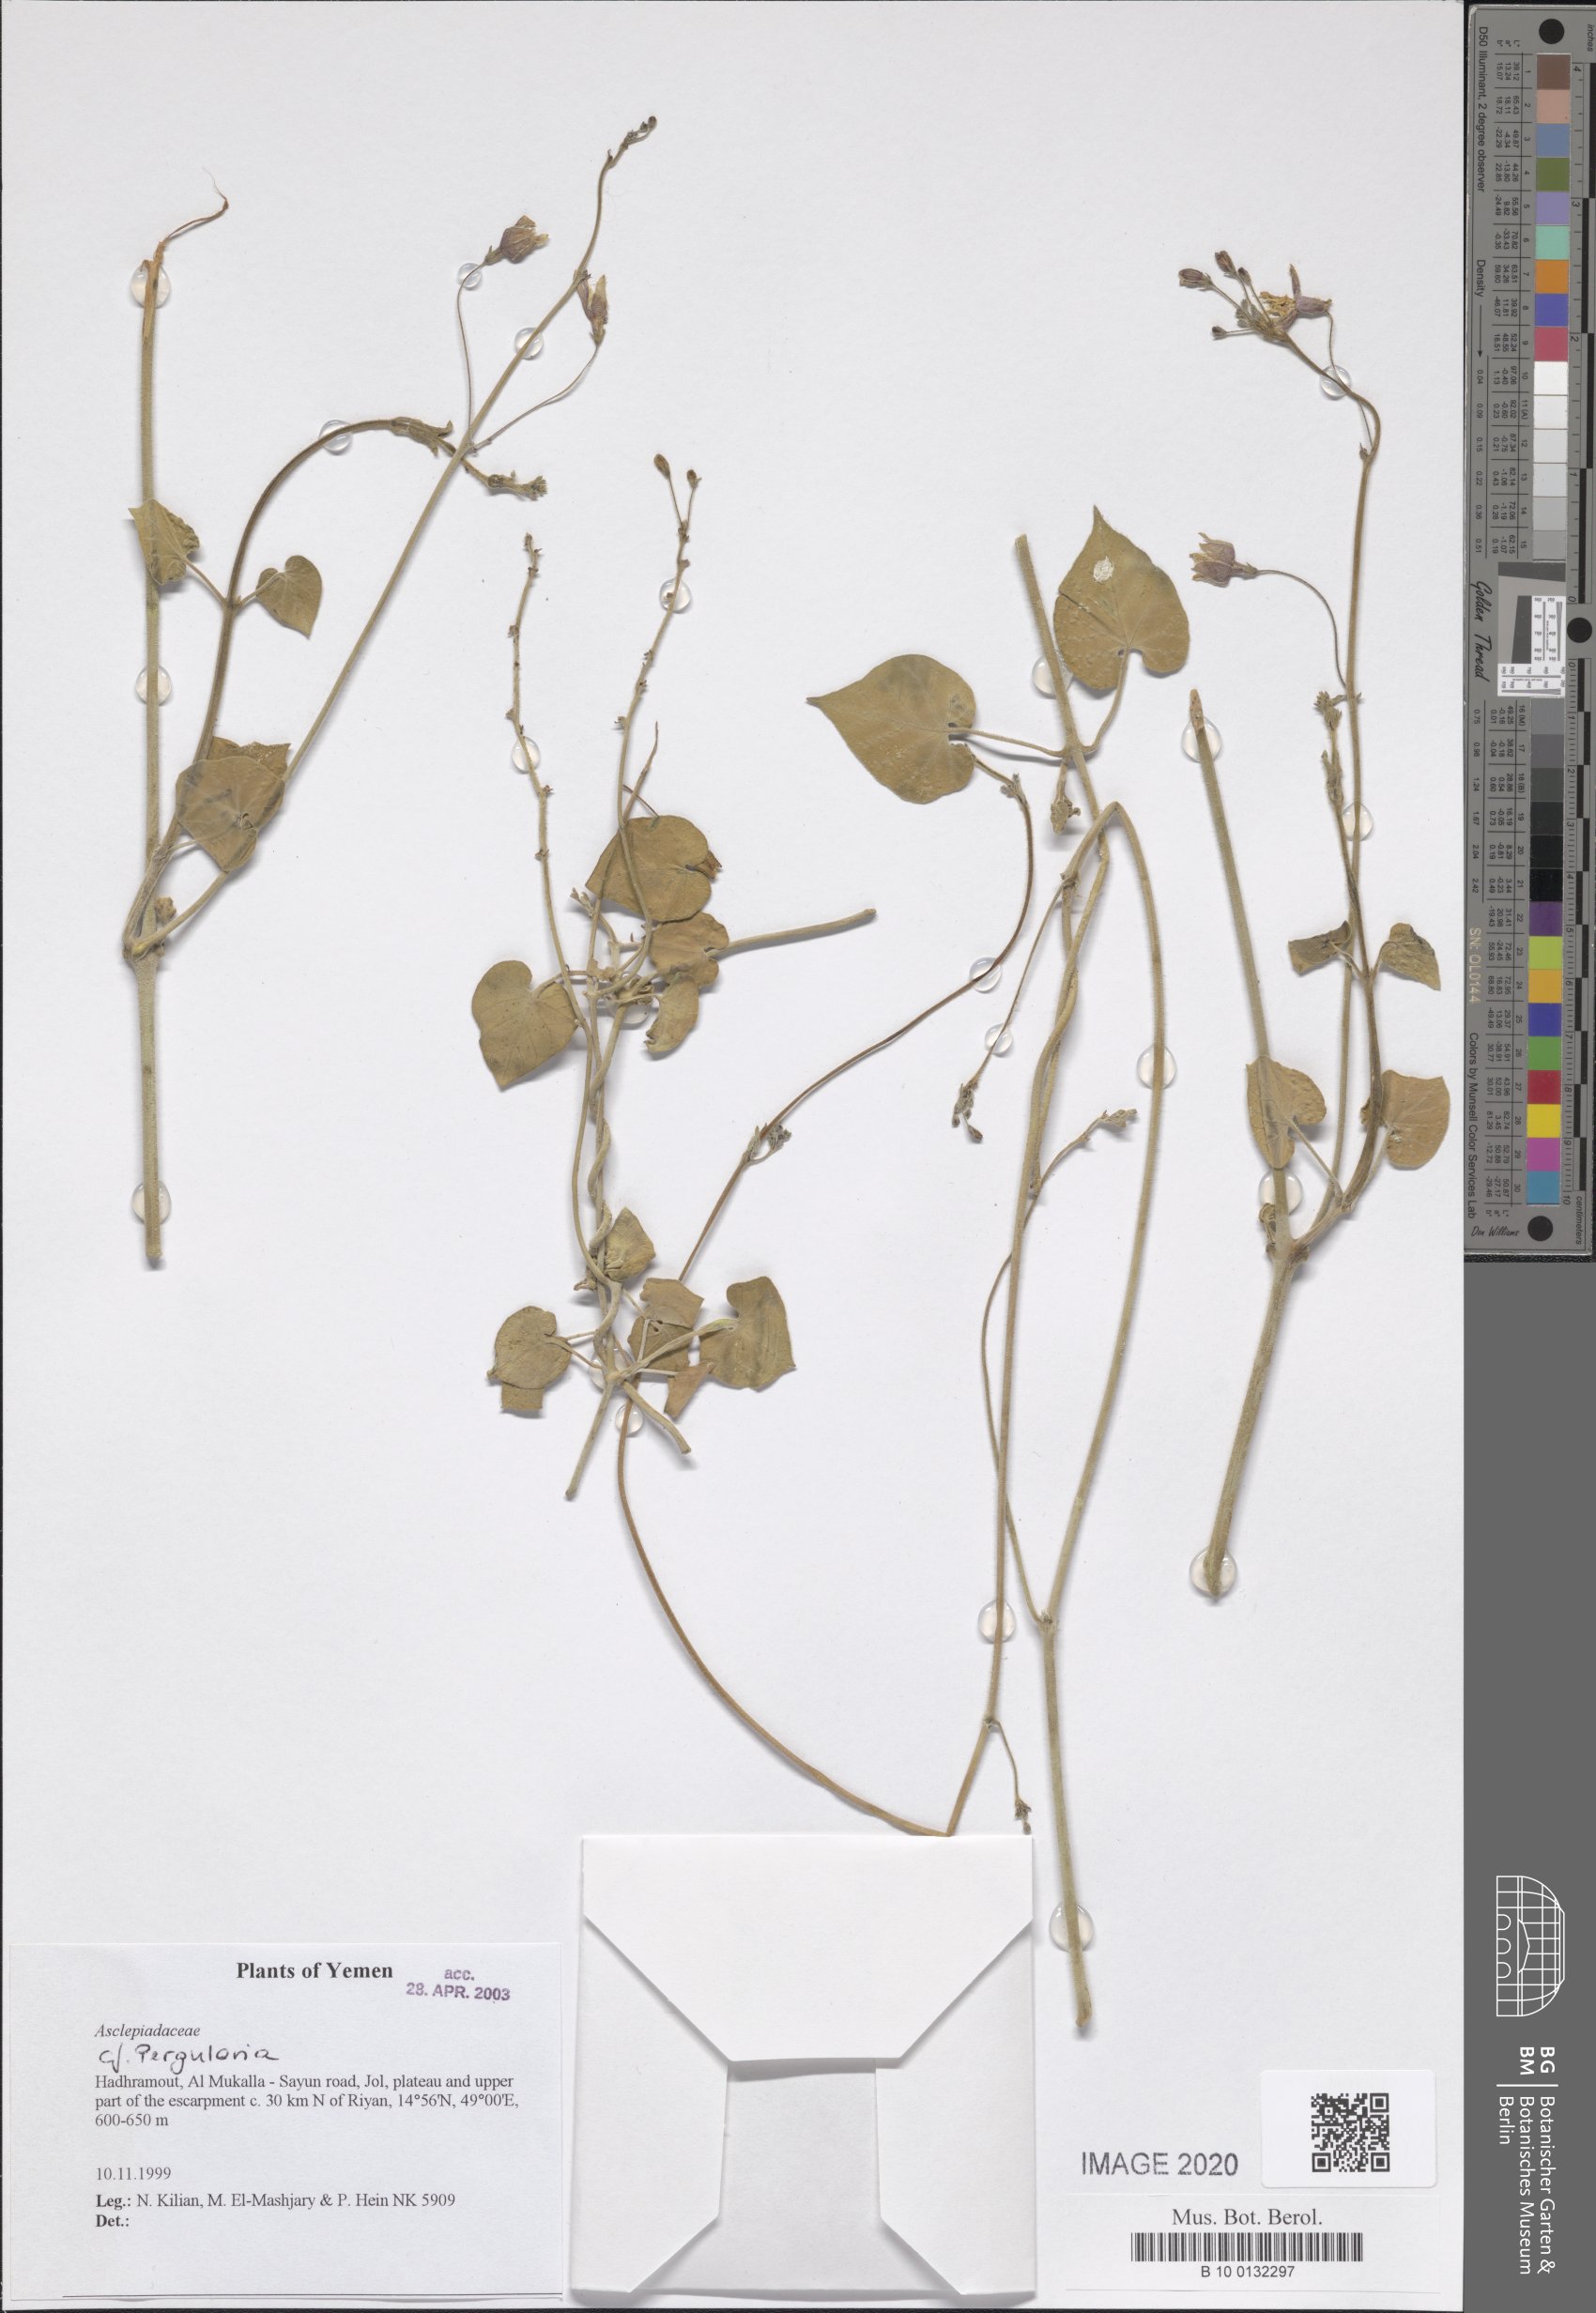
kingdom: Plantae
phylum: Tracheophyta
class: Magnoliopsida
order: Gentianales
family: Apocynaceae
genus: Pergularia
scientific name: Pergularia tomentosa
